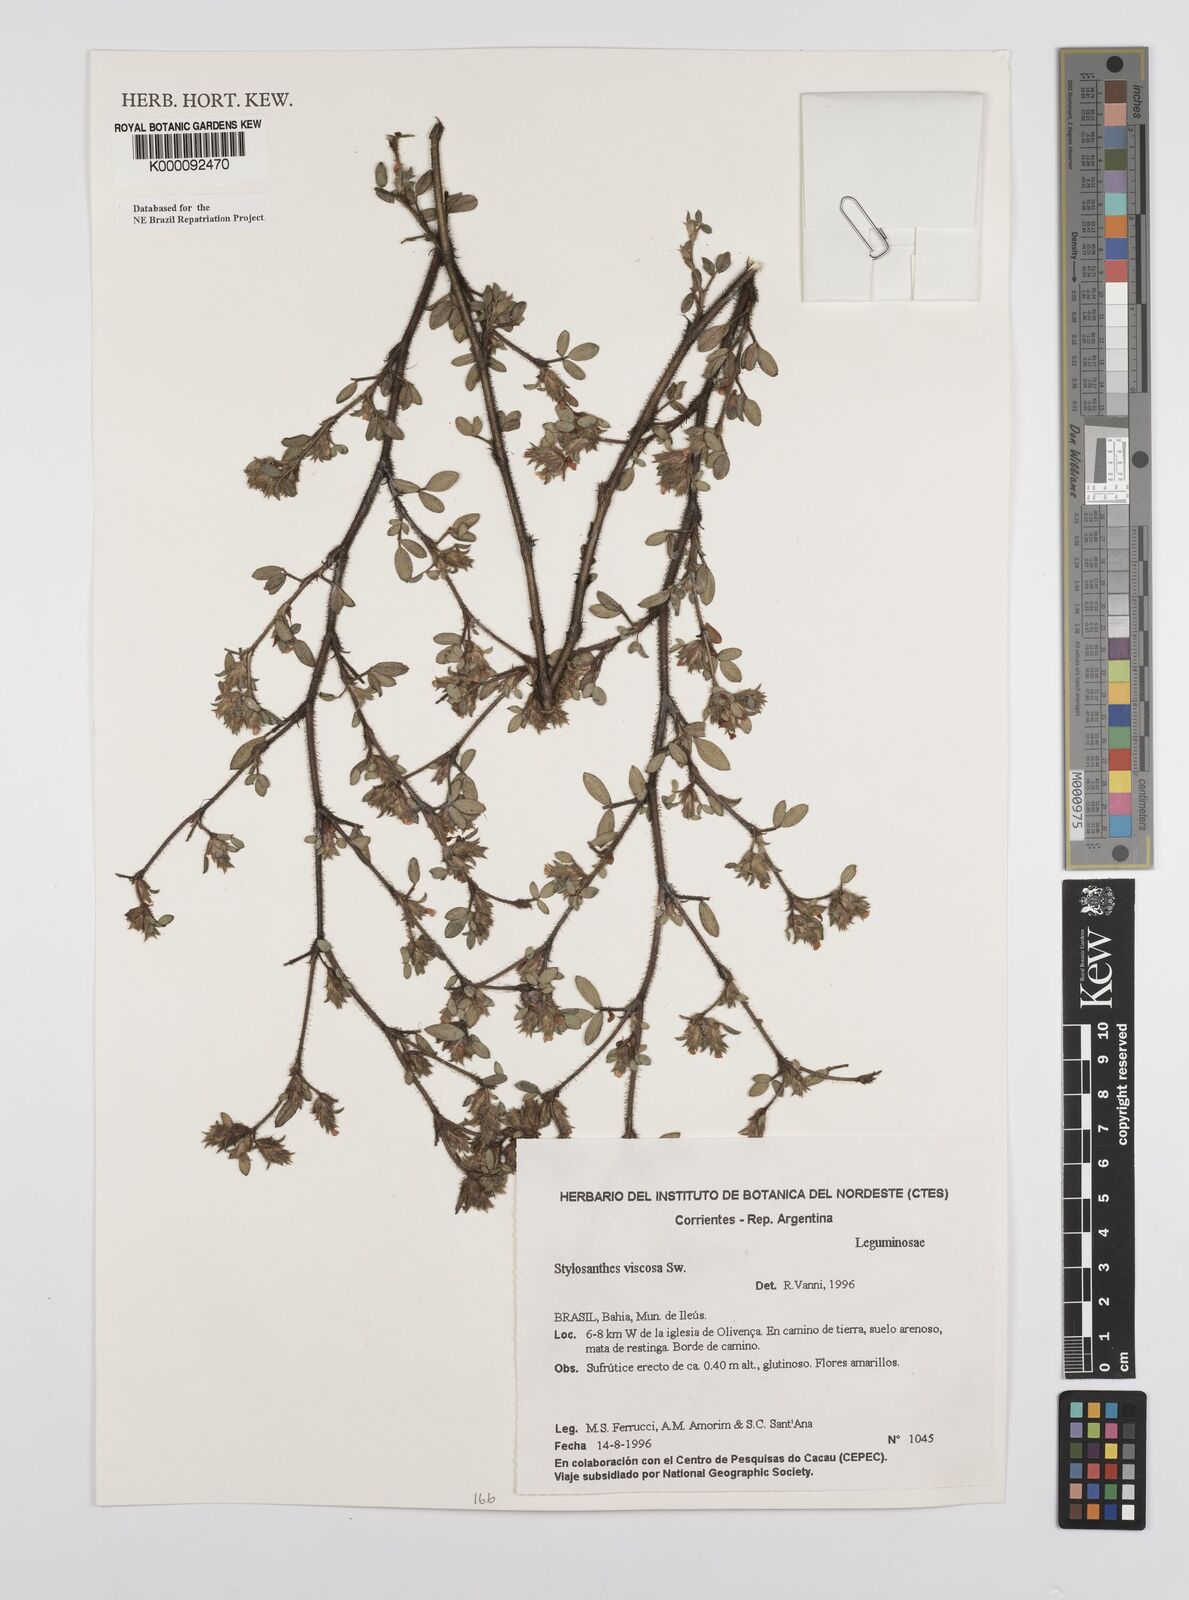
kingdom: Plantae
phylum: Tracheophyta
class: Magnoliopsida
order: Fabales
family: Fabaceae
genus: Stylosanthes
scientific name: Stylosanthes viscosa
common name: Viscid pencil-flower
